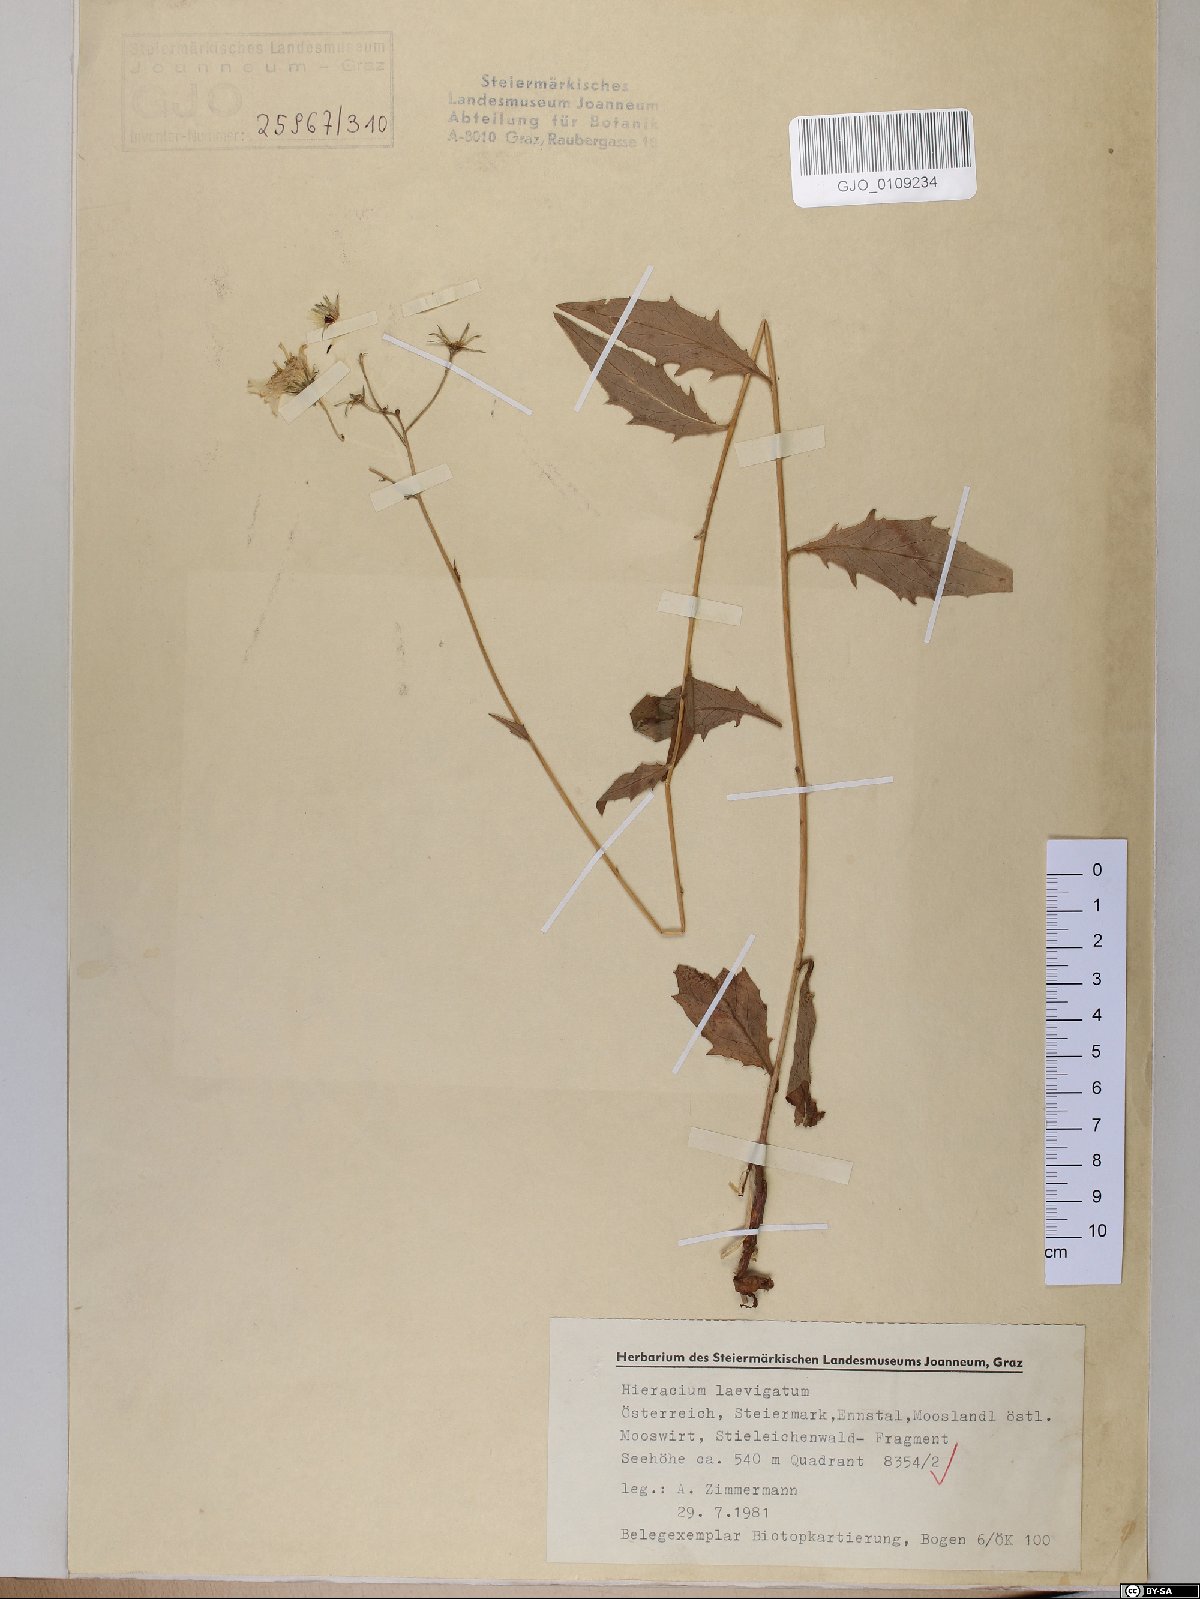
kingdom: Plantae
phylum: Tracheophyta
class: Magnoliopsida
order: Asterales
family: Asteraceae
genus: Hieracium
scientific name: Hieracium laevigatum
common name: Smooth hawkweed
